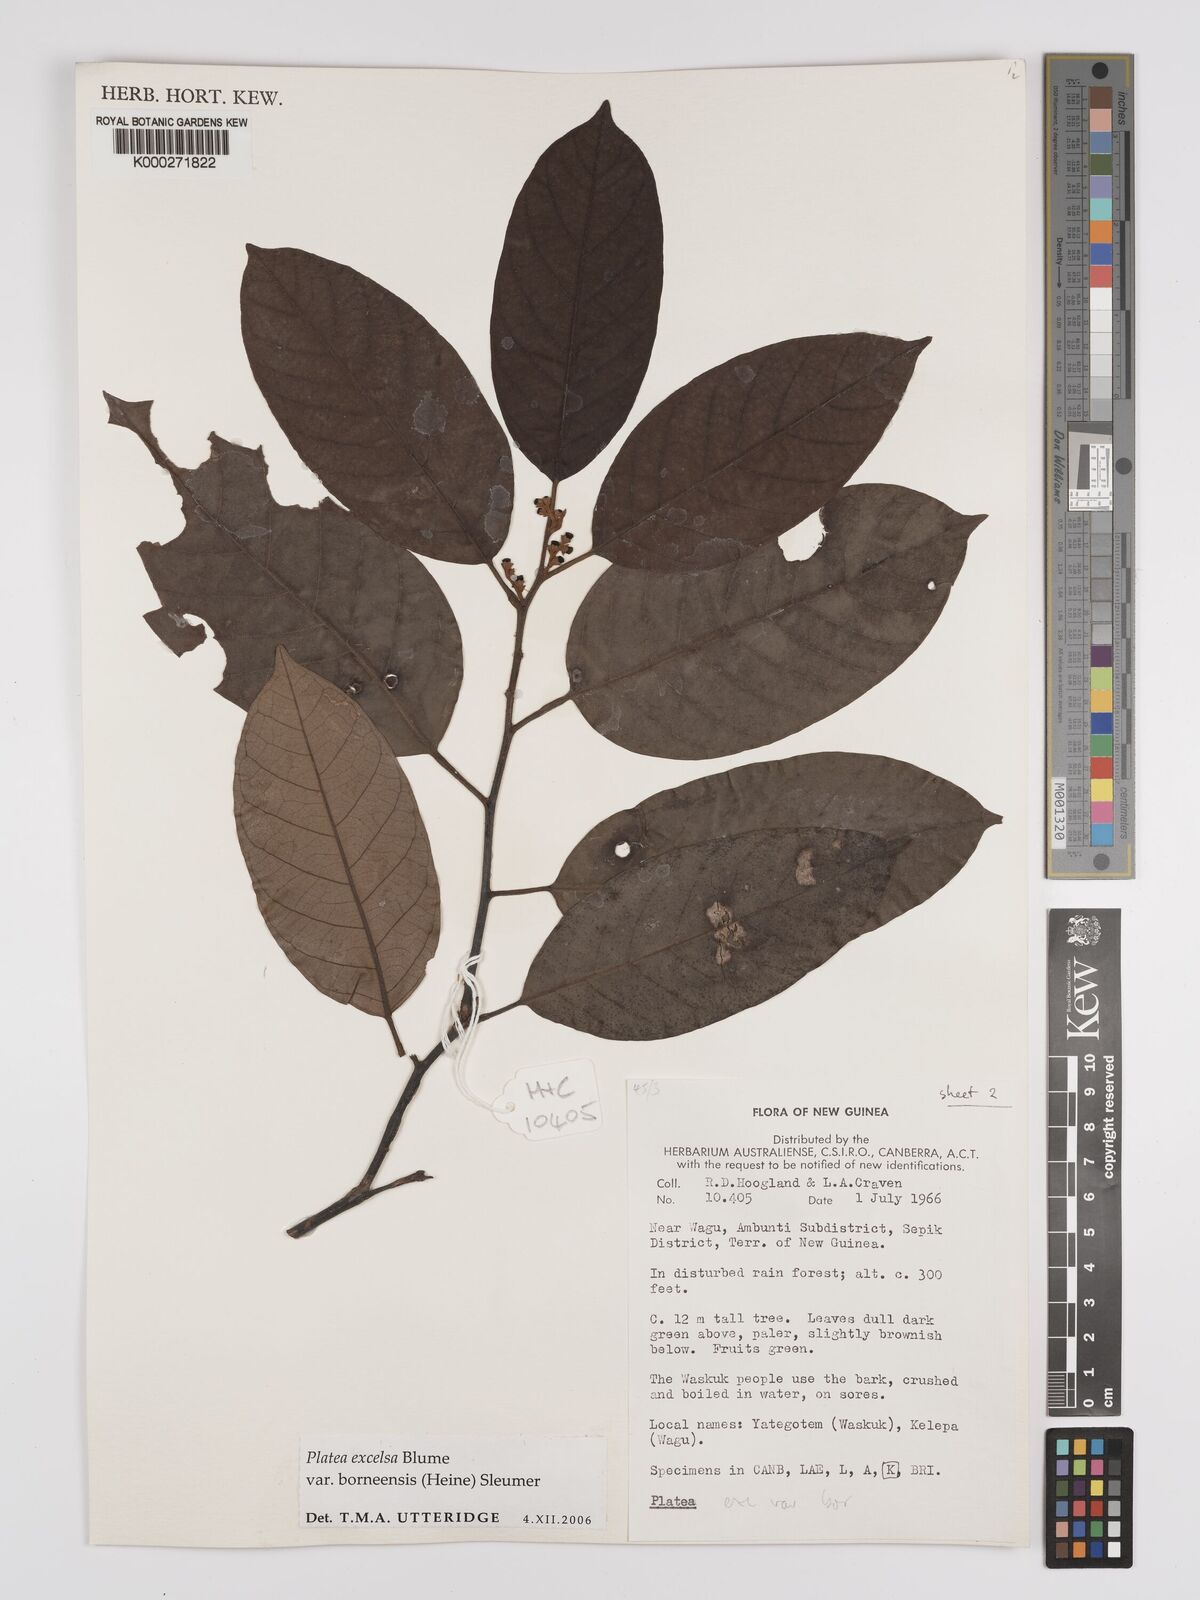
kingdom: Plantae
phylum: Tracheophyta
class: Magnoliopsida
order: Metteniusales
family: Metteniusaceae
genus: Platea
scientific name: Platea excelsa
